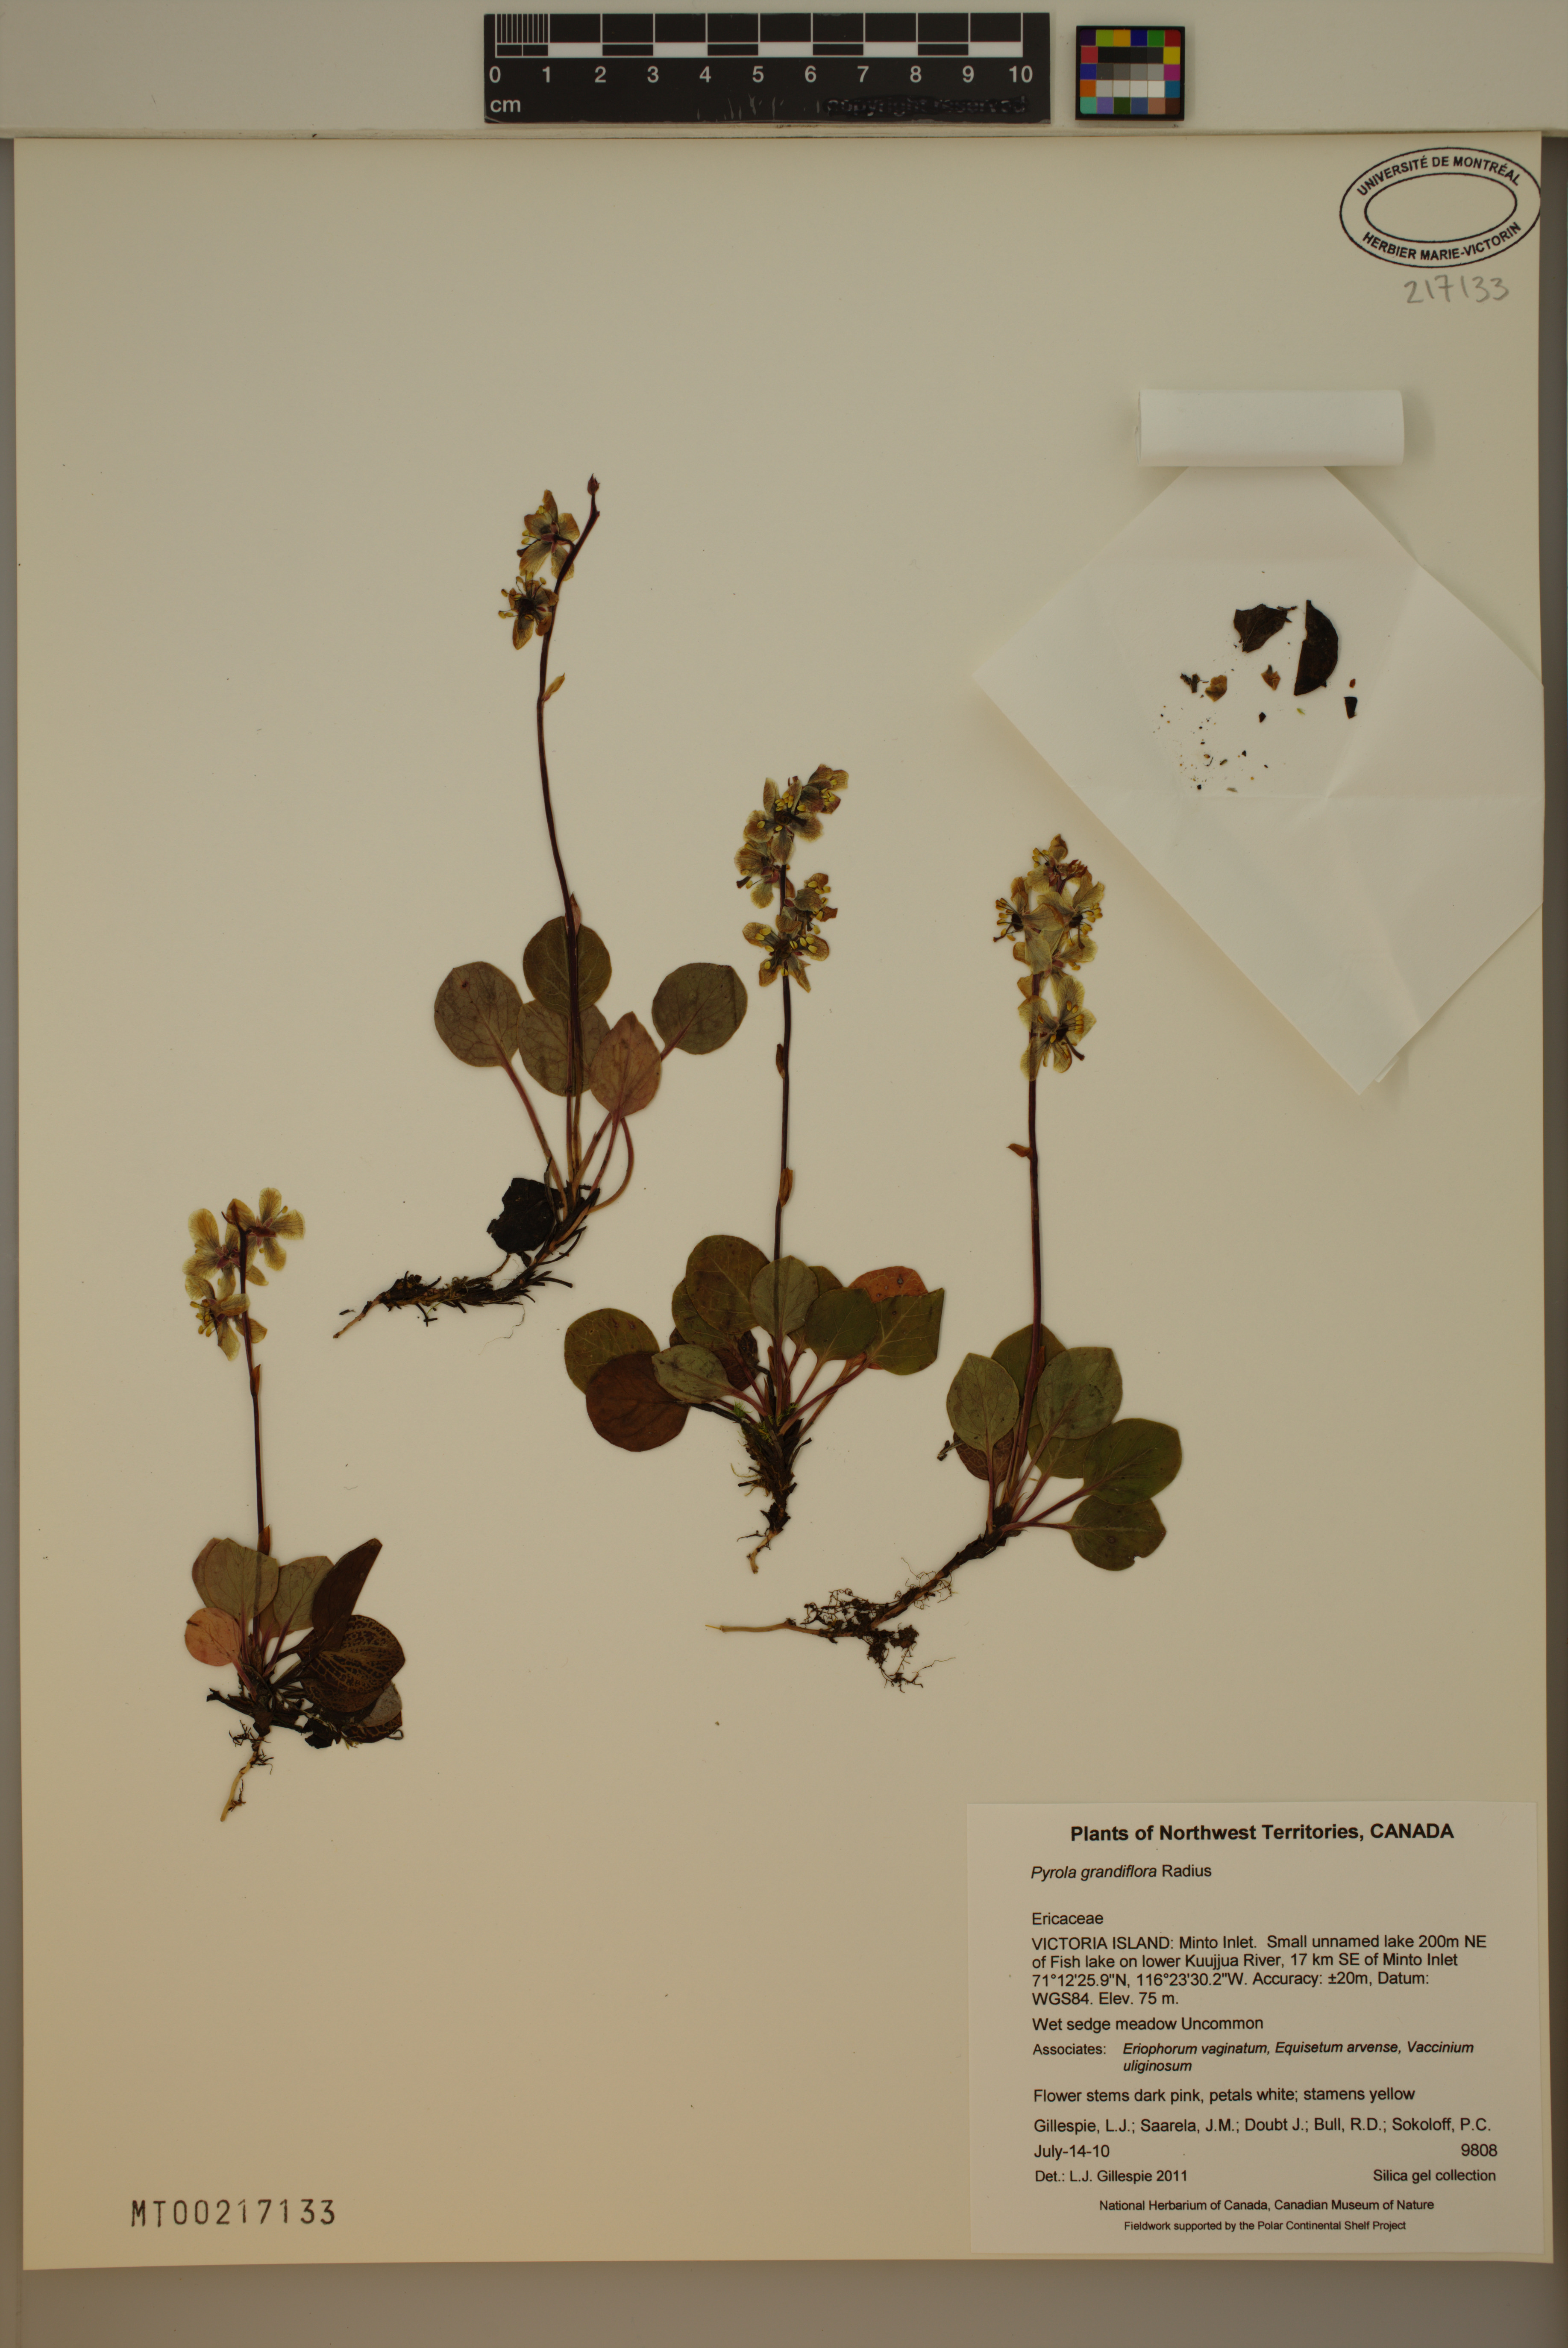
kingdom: Plantae
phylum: Tracheophyta
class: Magnoliopsida
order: Ericales
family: Ericaceae
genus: Pyrola
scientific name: Pyrola grandiflora
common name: Arctic pyrola
